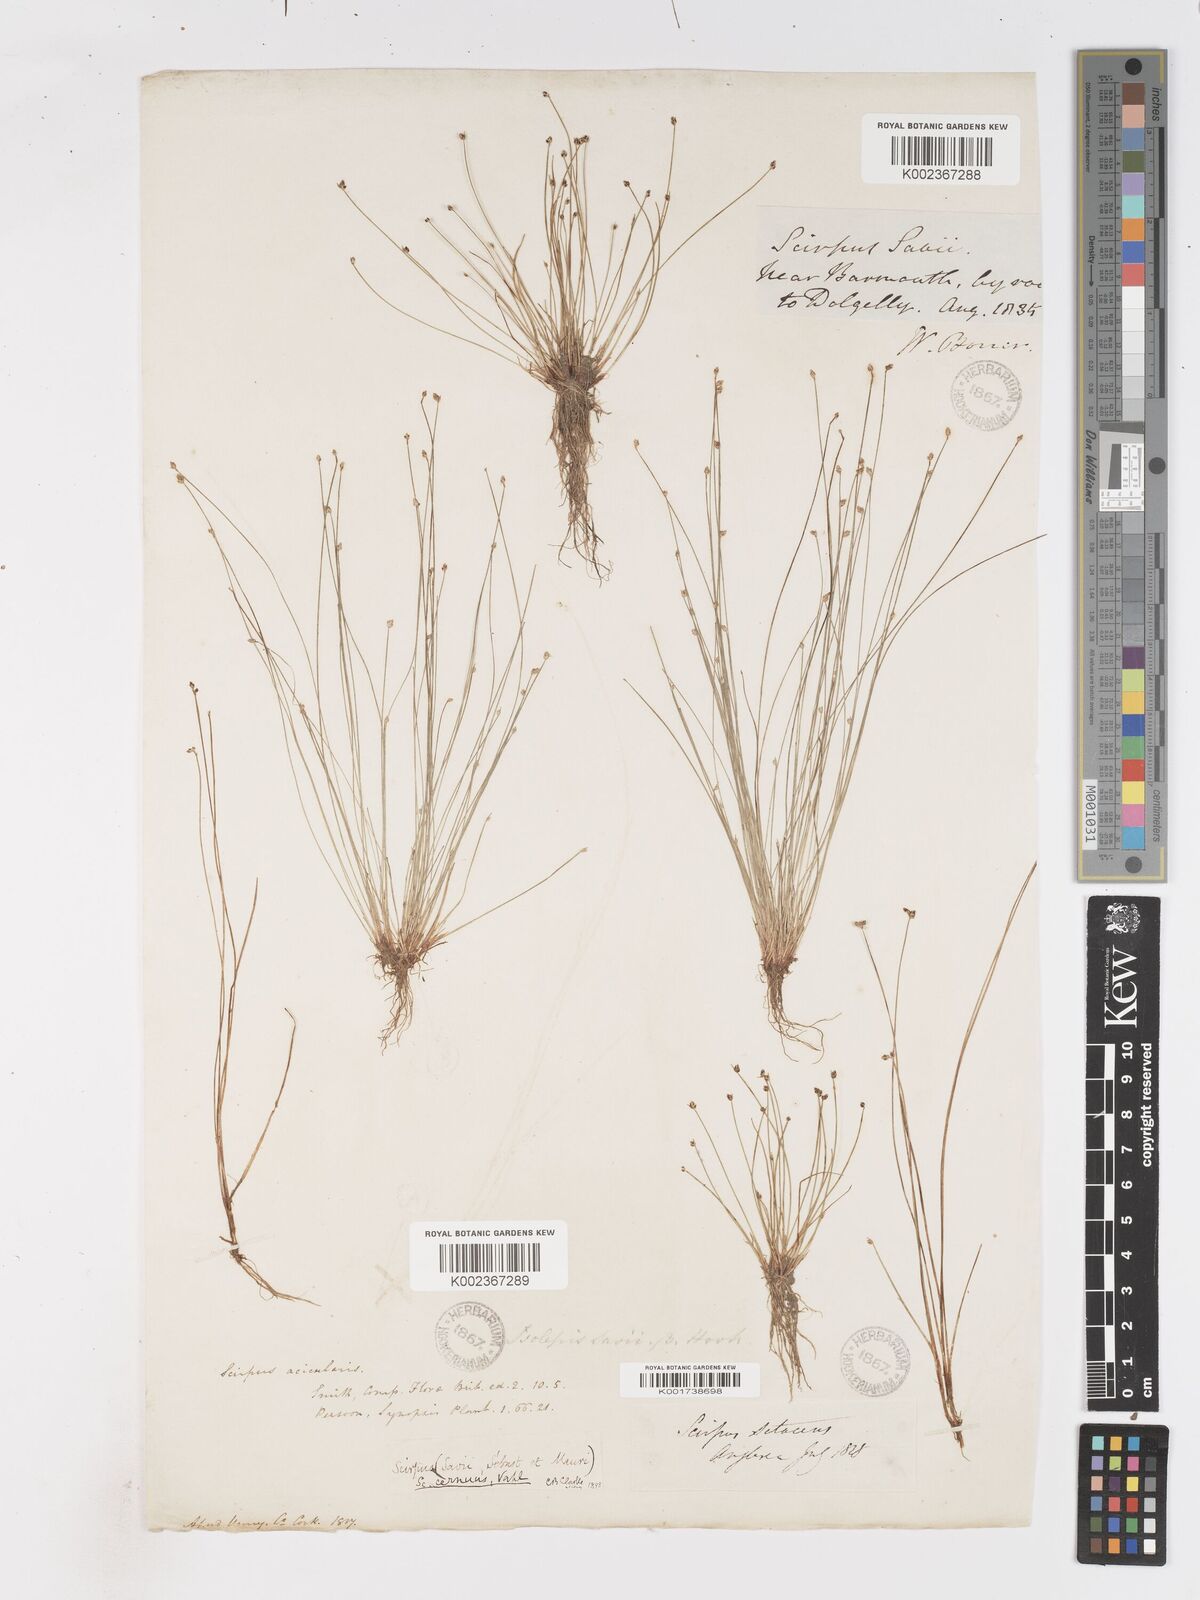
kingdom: Plantae
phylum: Tracheophyta
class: Liliopsida
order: Poales
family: Cyperaceae
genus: Isolepis
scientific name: Isolepis cernua
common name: Slender club-rush
